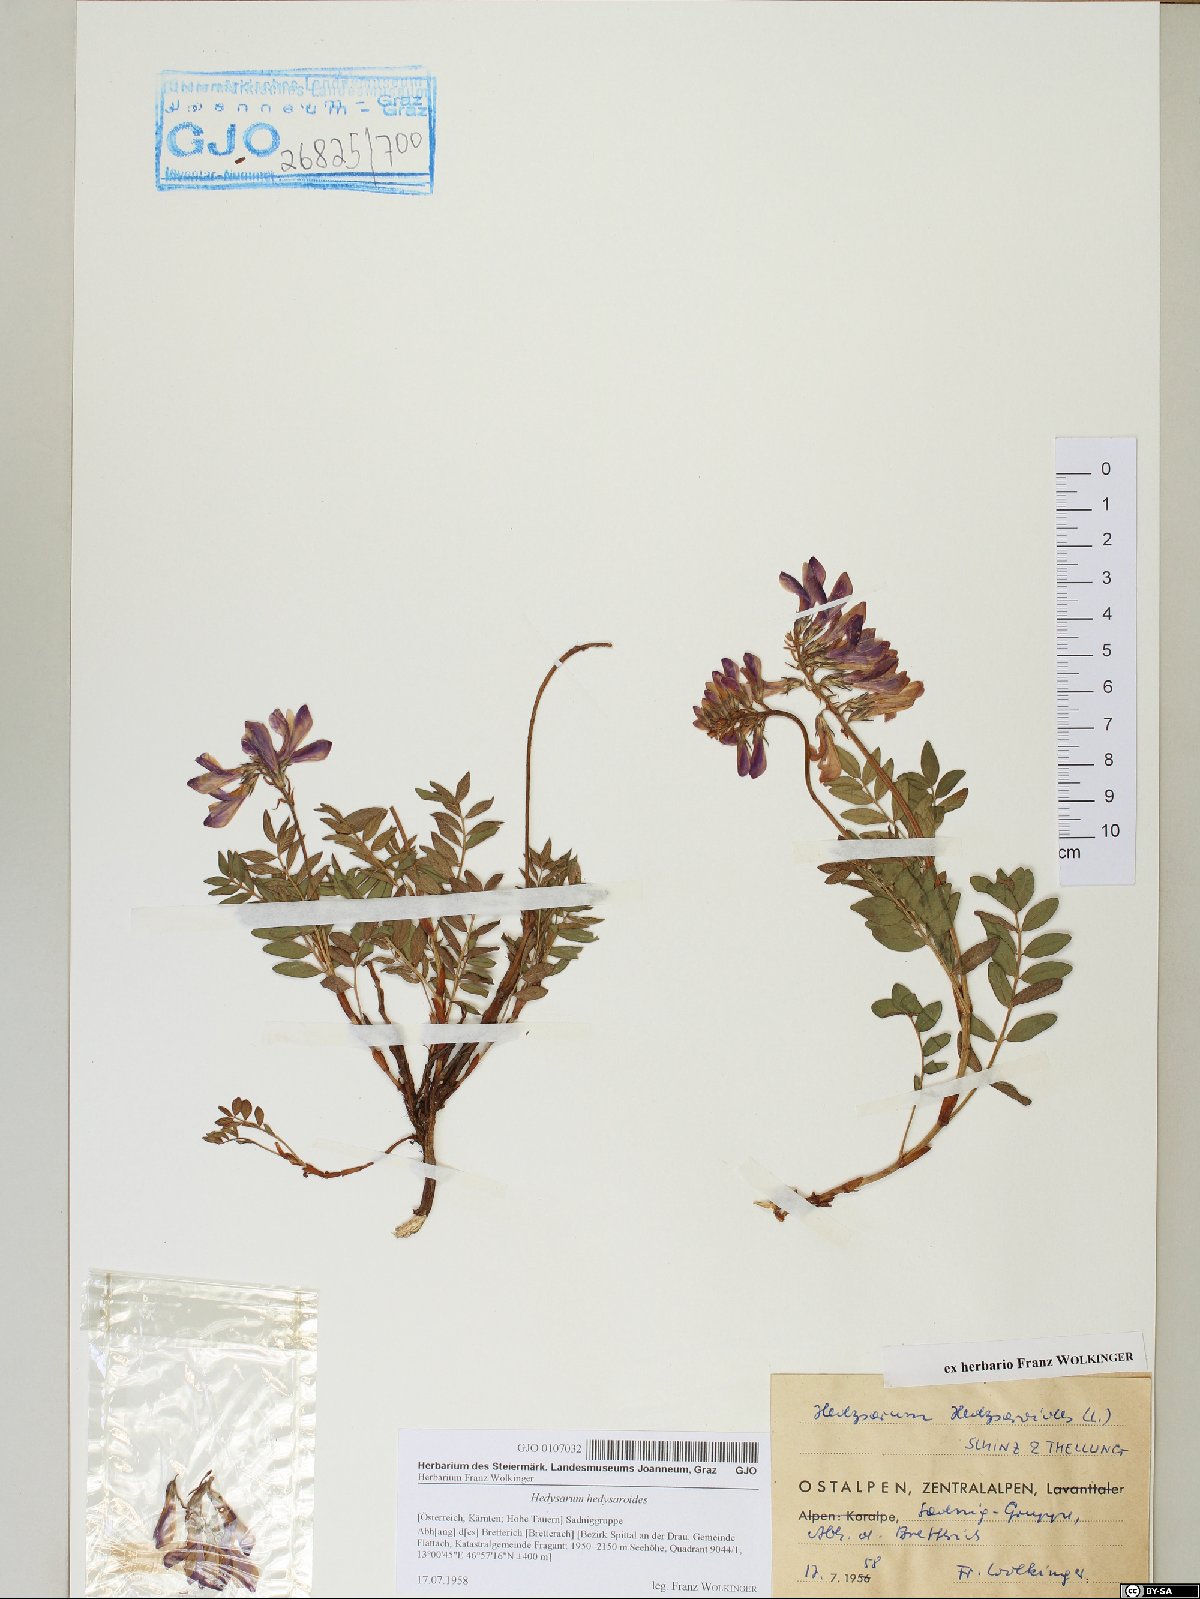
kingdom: Plantae
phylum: Tracheophyta
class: Magnoliopsida
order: Fabales
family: Fabaceae
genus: Hedysarum
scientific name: Hedysarum hedysaroides
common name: Alpine french-honeysuckle
